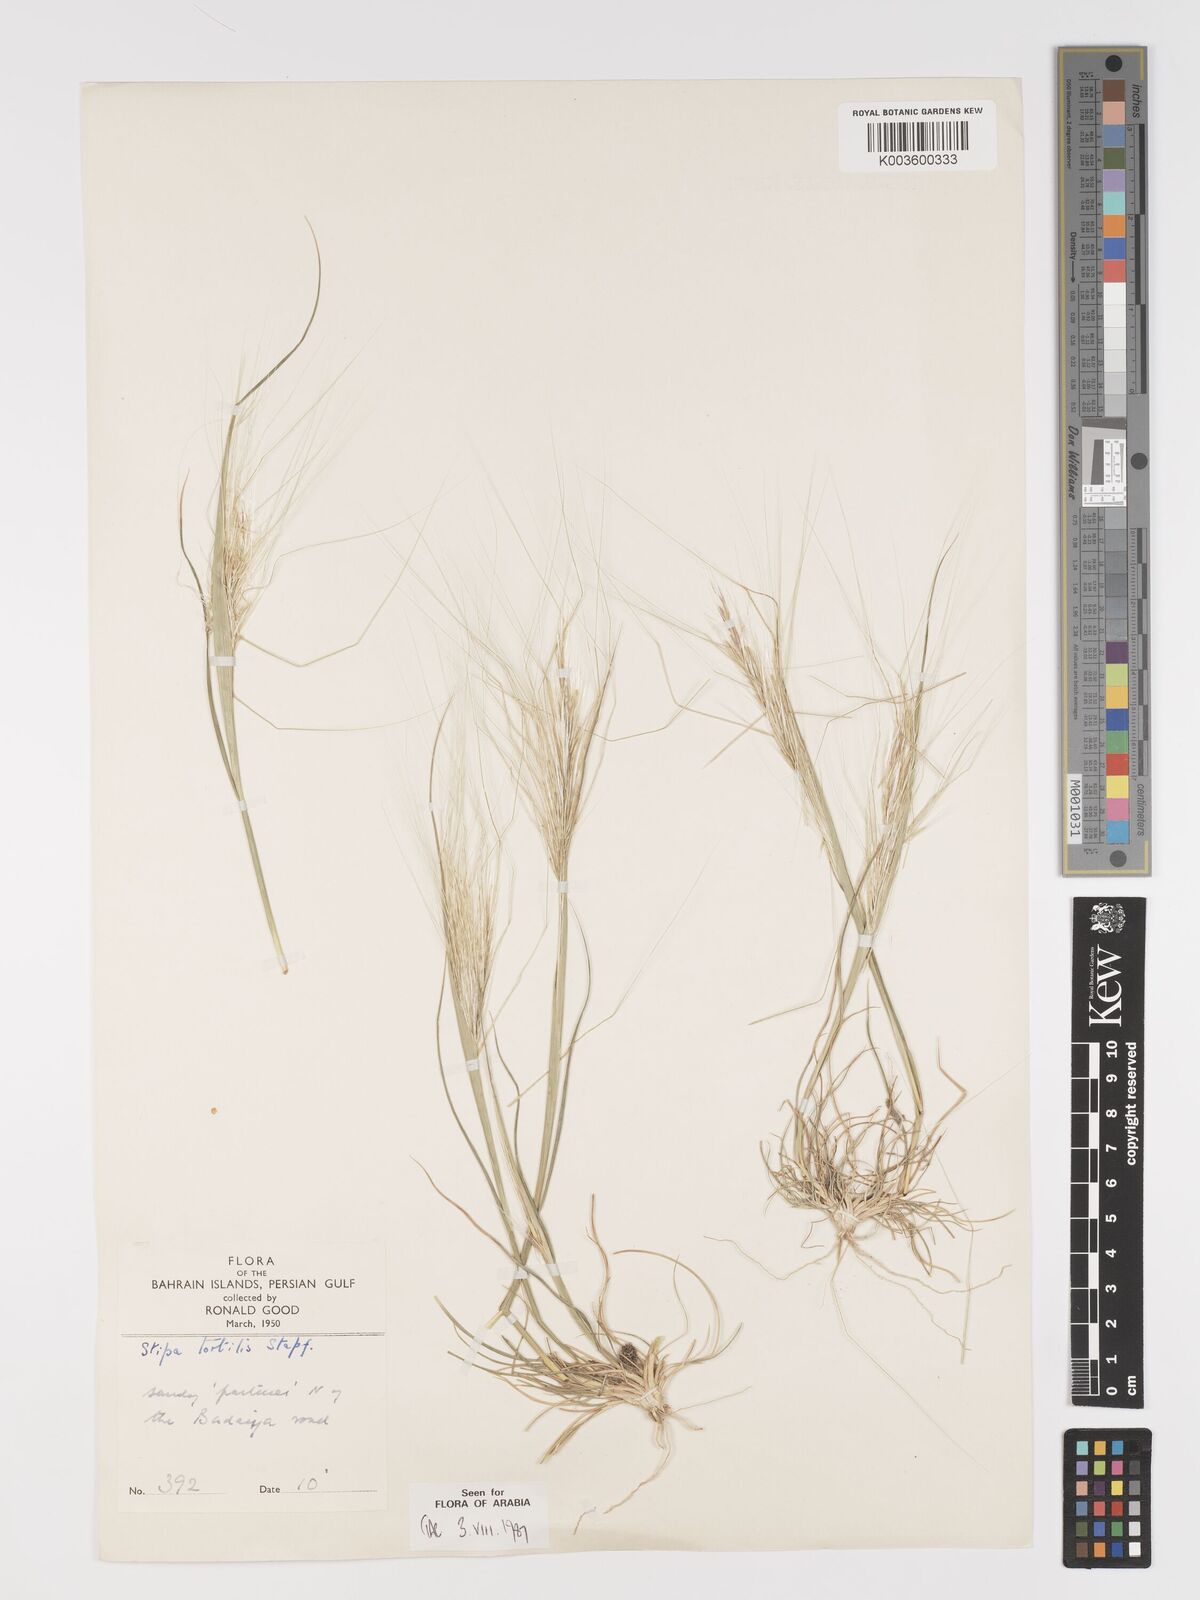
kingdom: Plantae
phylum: Tracheophyta
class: Liliopsida
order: Poales
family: Poaceae
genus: Stipellula
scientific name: Stipellula capensis
